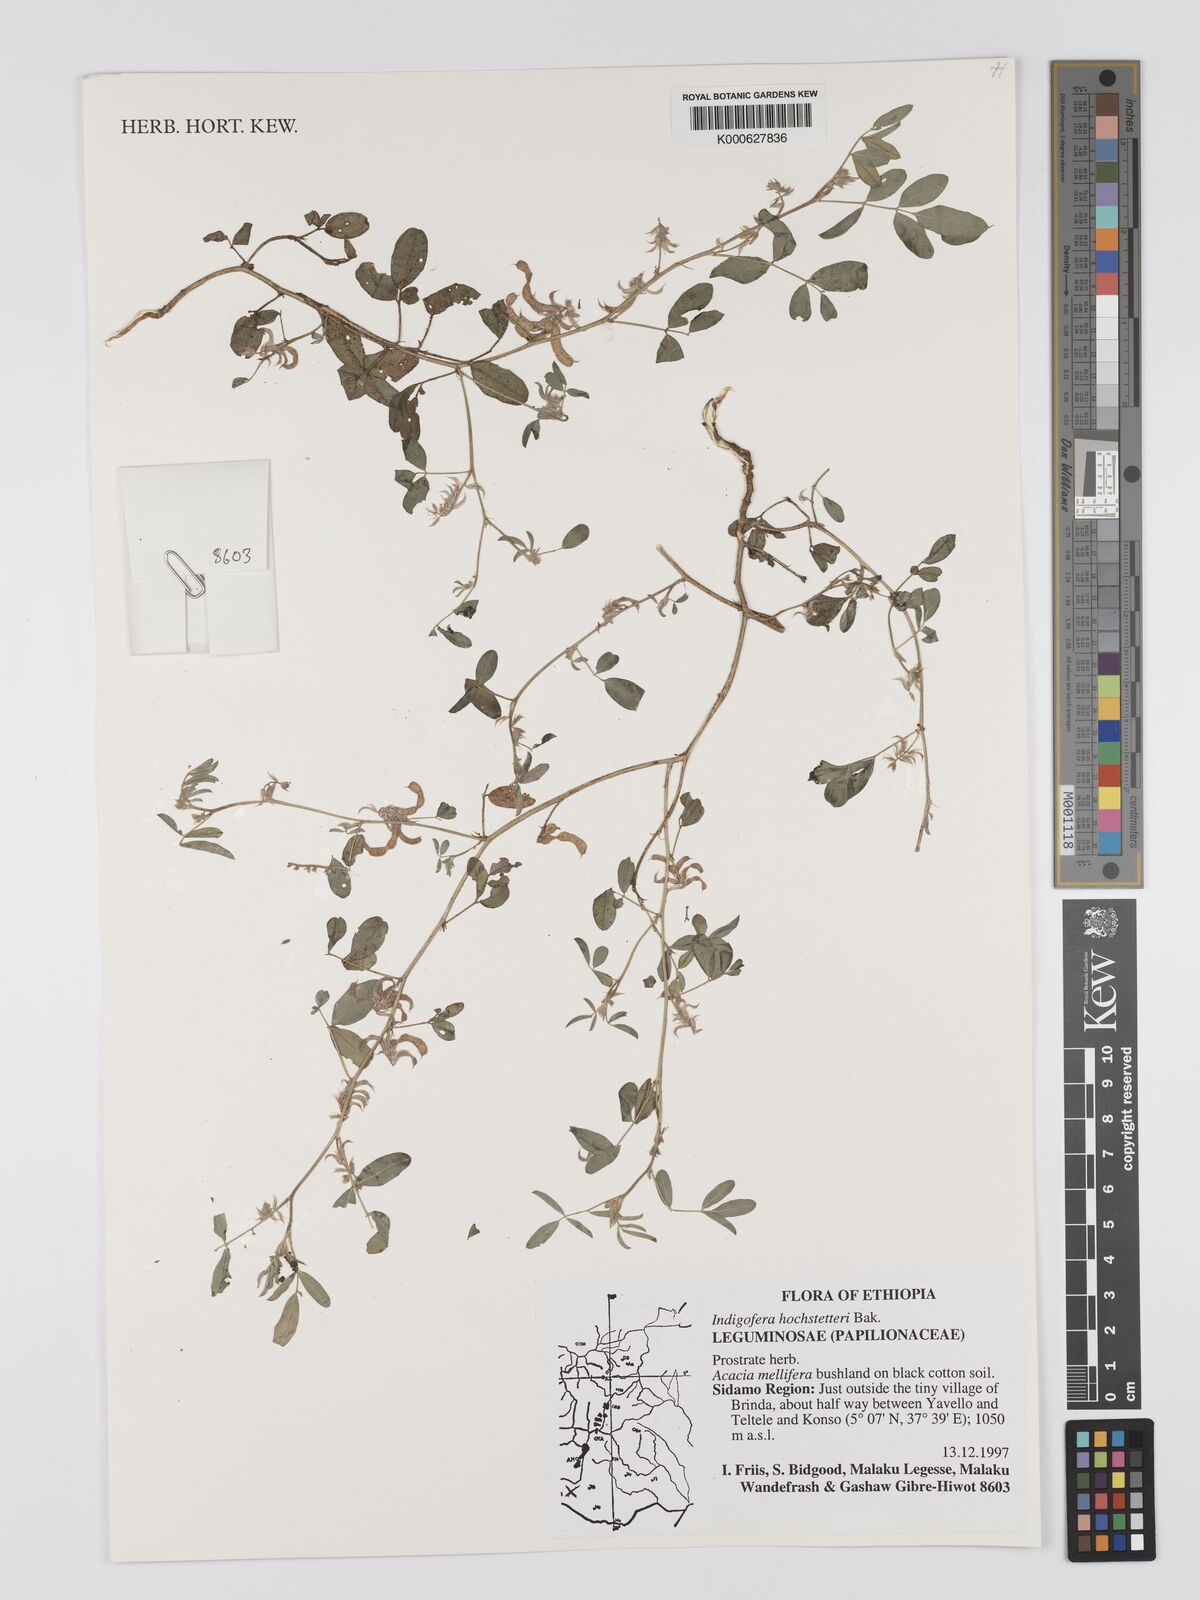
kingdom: Plantae
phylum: Tracheophyta
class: Magnoliopsida
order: Fabales
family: Fabaceae
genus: Indigofera
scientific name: Indigofera hochstetteri
